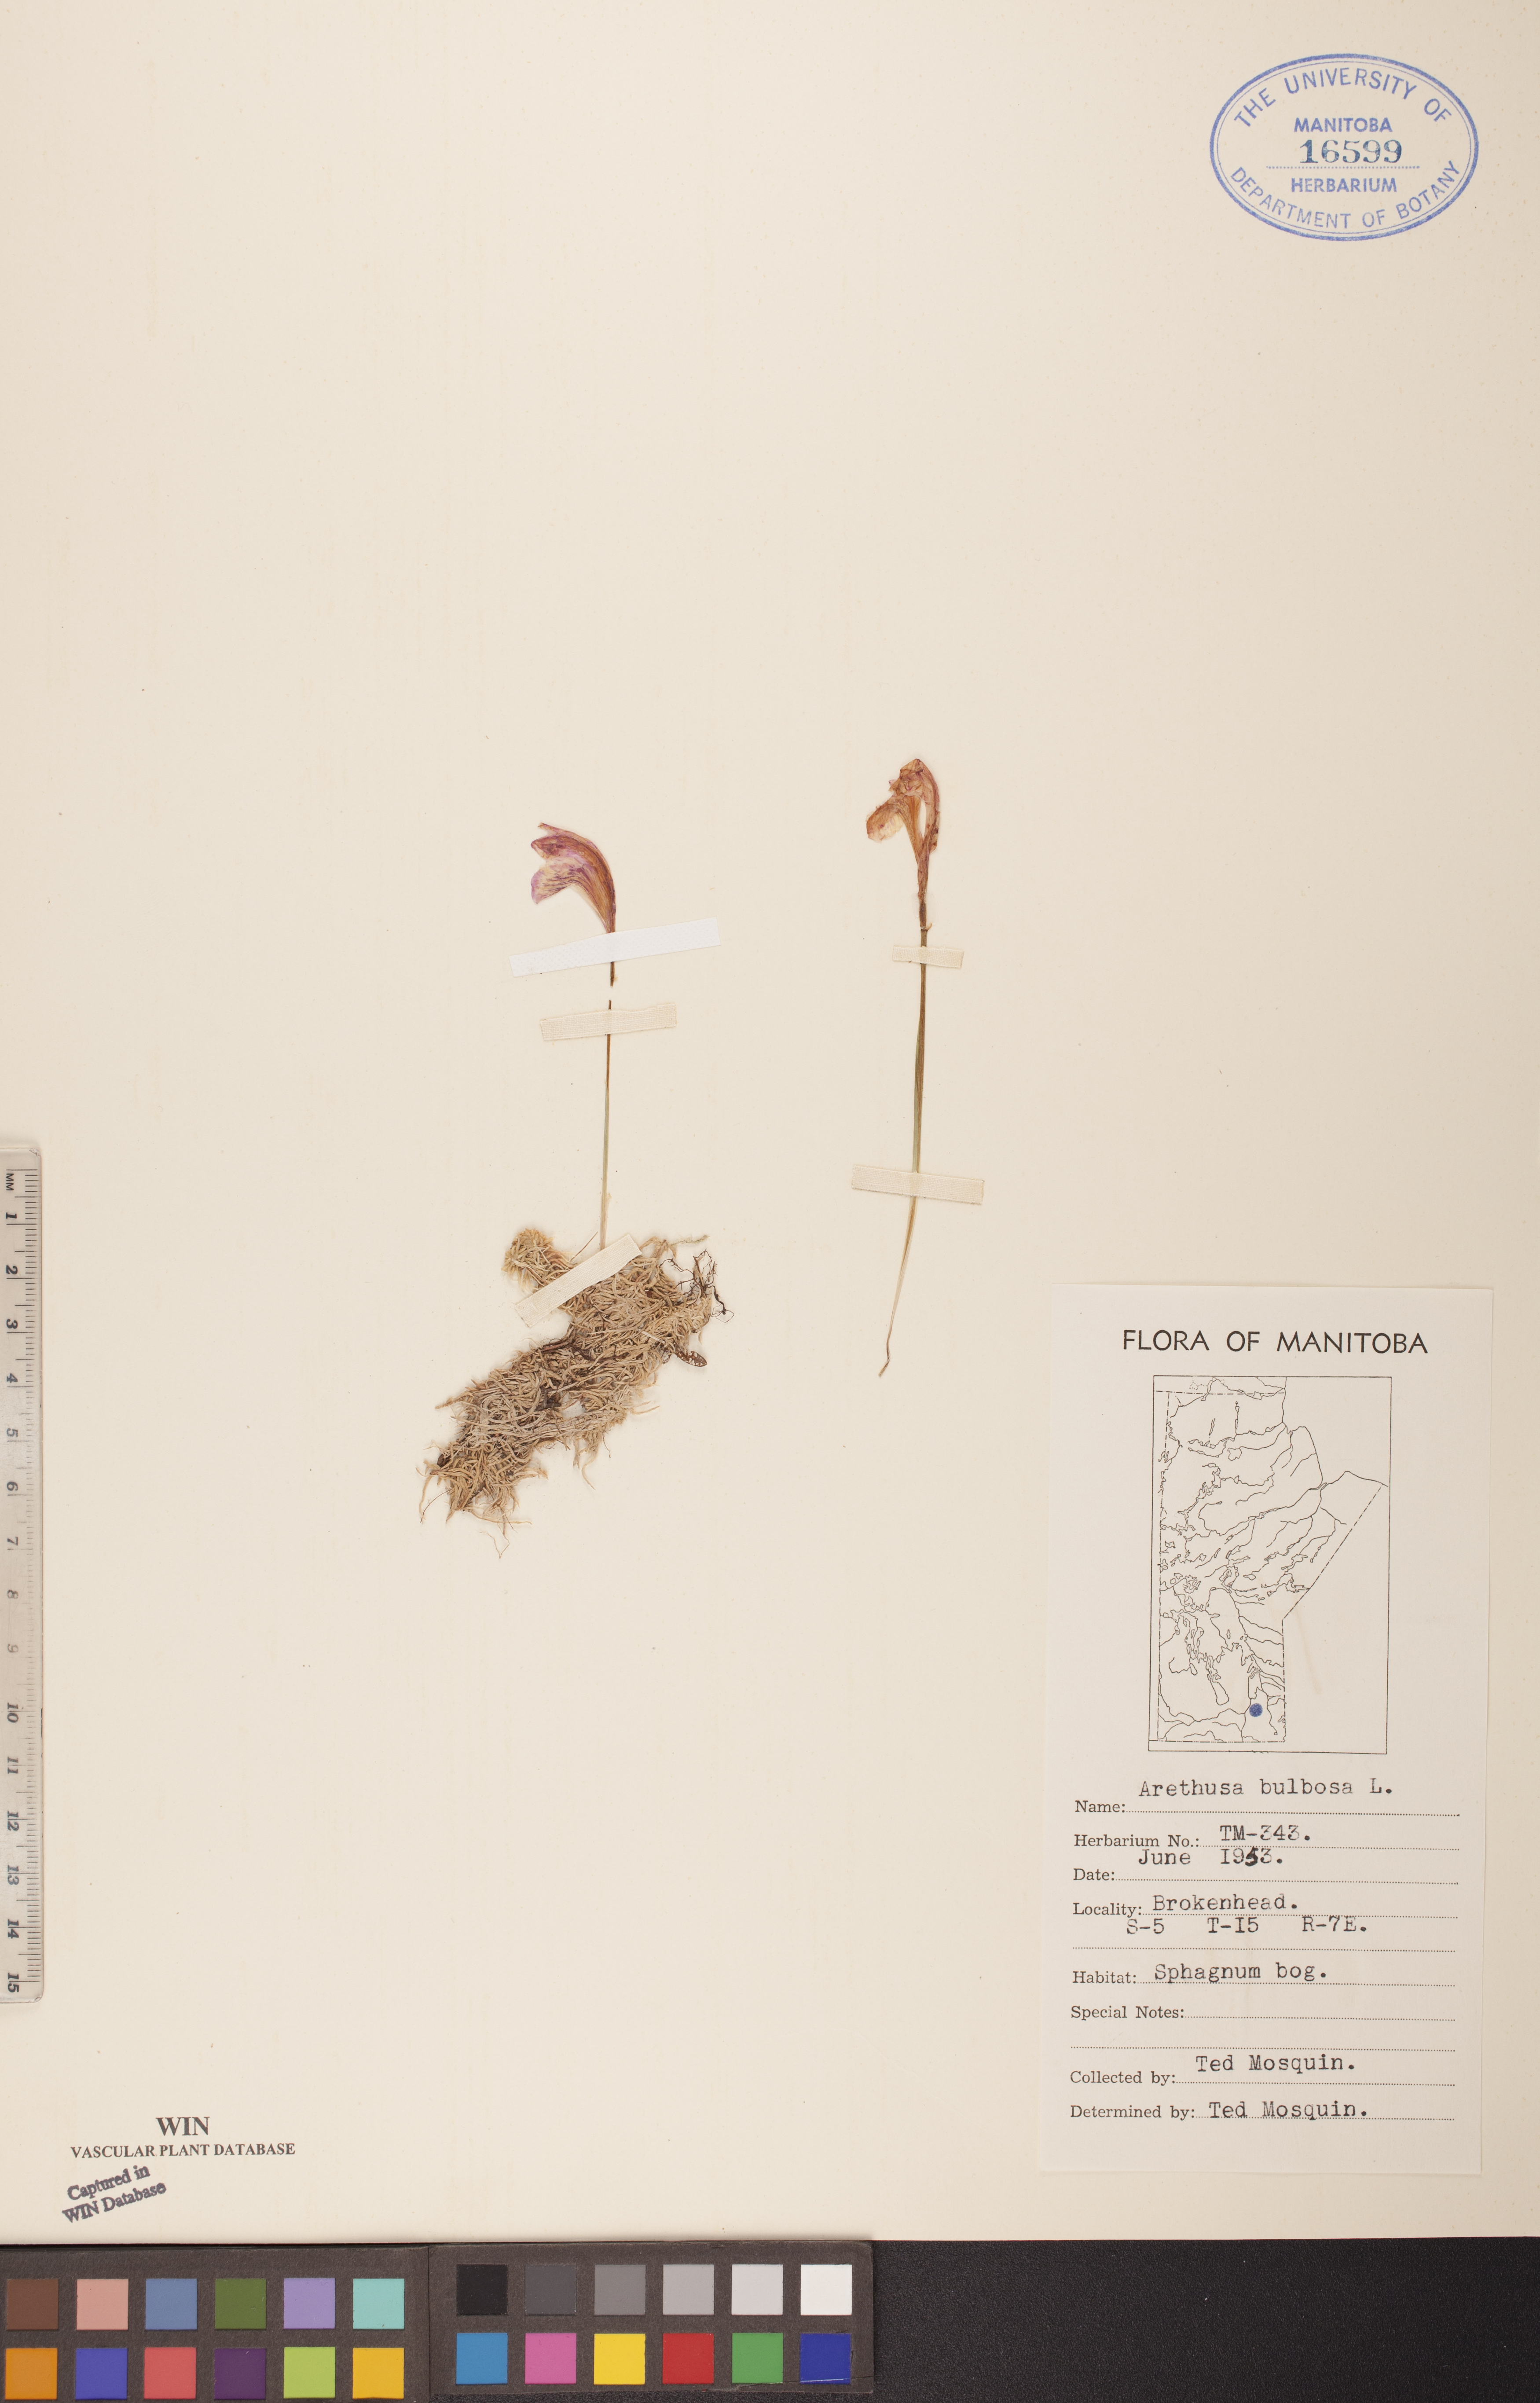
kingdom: Plantae
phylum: Tracheophyta
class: Liliopsida
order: Asparagales
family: Orchidaceae
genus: Arethusa
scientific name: Arethusa bulbosa
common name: Arethusa
